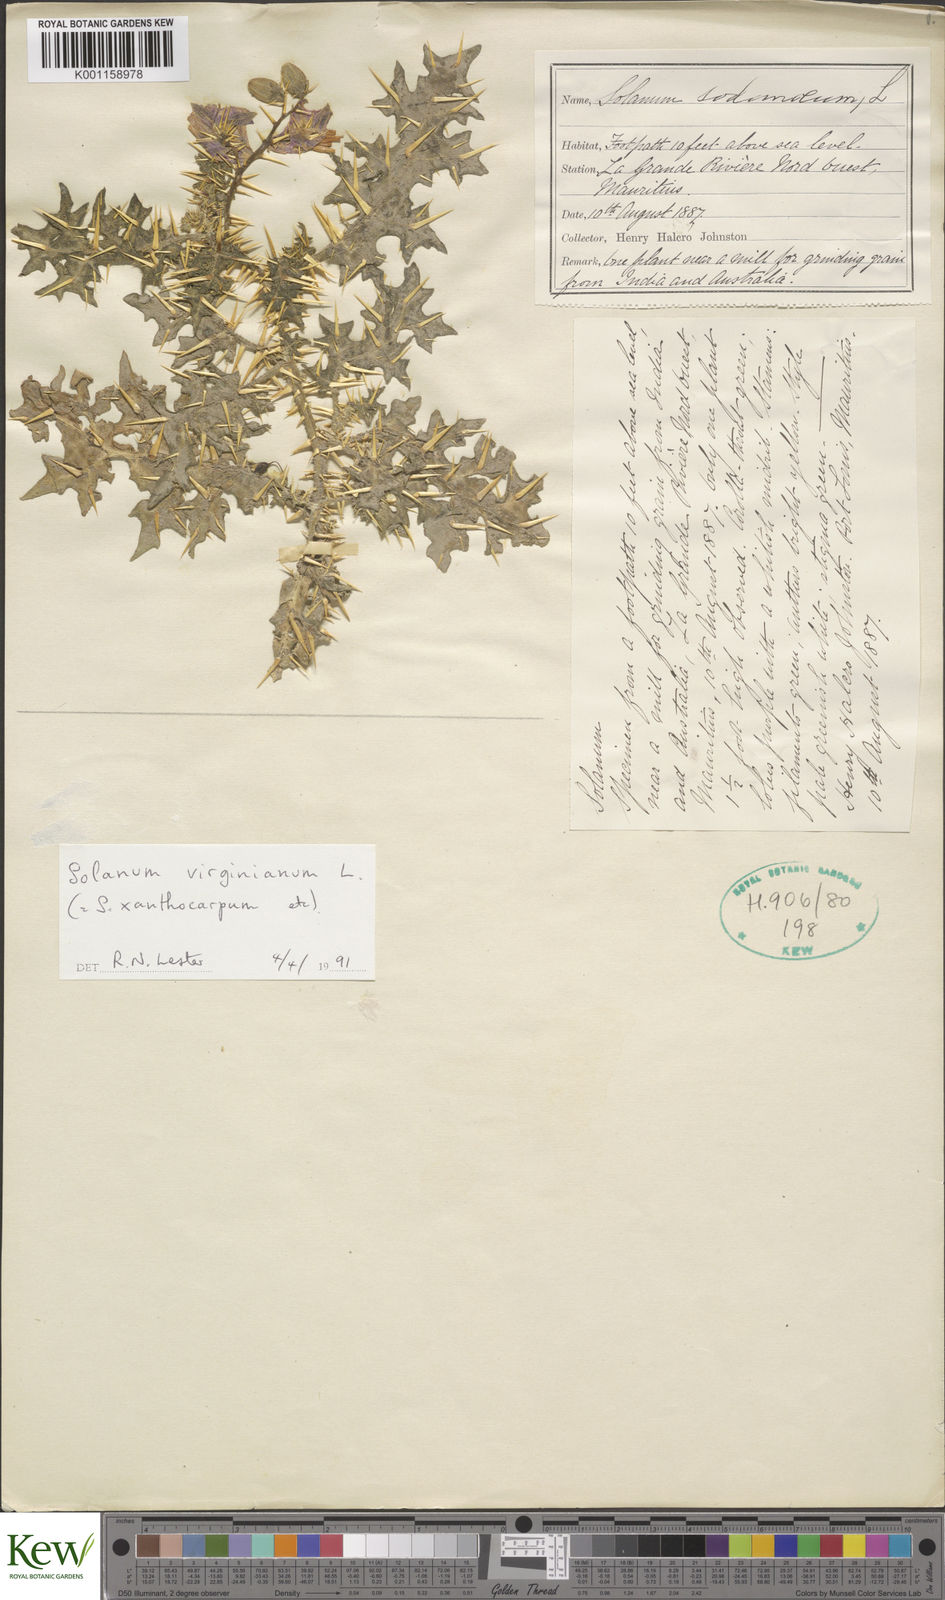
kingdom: Plantae
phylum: Tracheophyta
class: Magnoliopsida
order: Solanales
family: Solanaceae
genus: Solanum
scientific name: Solanum virginianum
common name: Surattense nightshade
